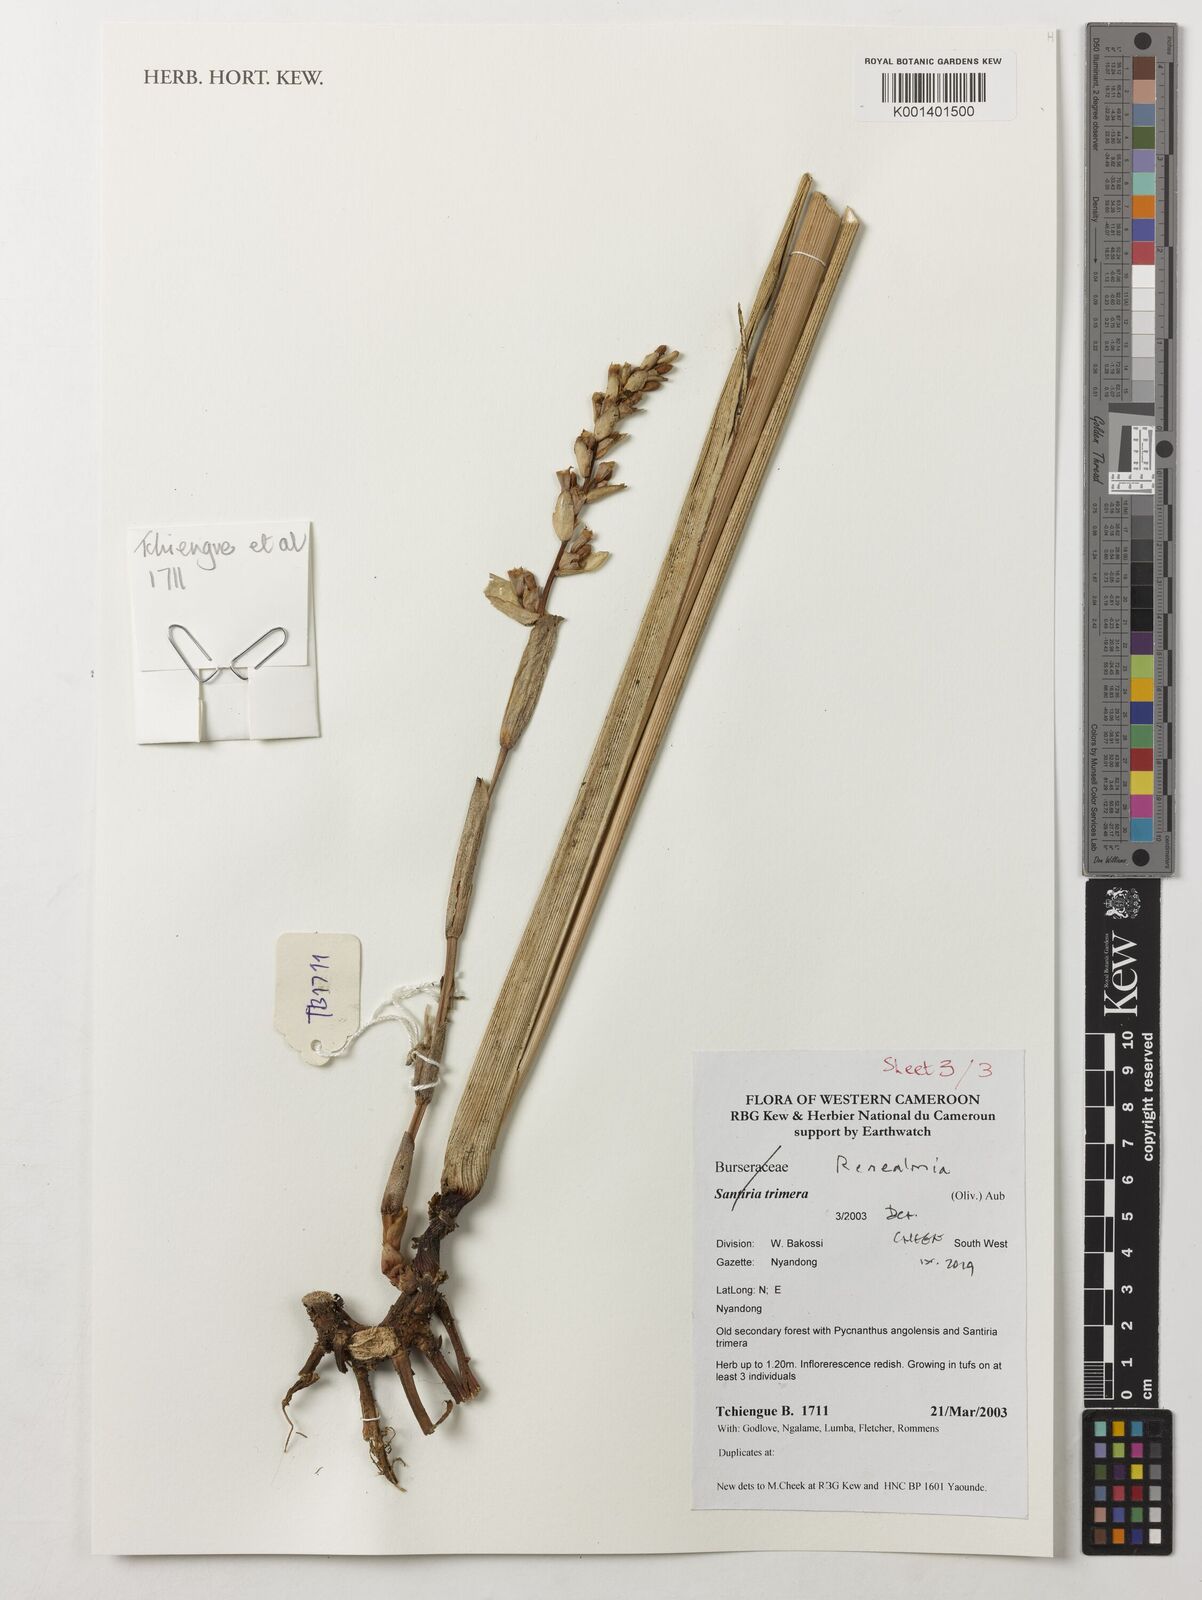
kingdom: Plantae
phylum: Tracheophyta
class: Liliopsida
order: Zingiberales
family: Zingiberaceae
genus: Renealmia
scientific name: Renealmia
